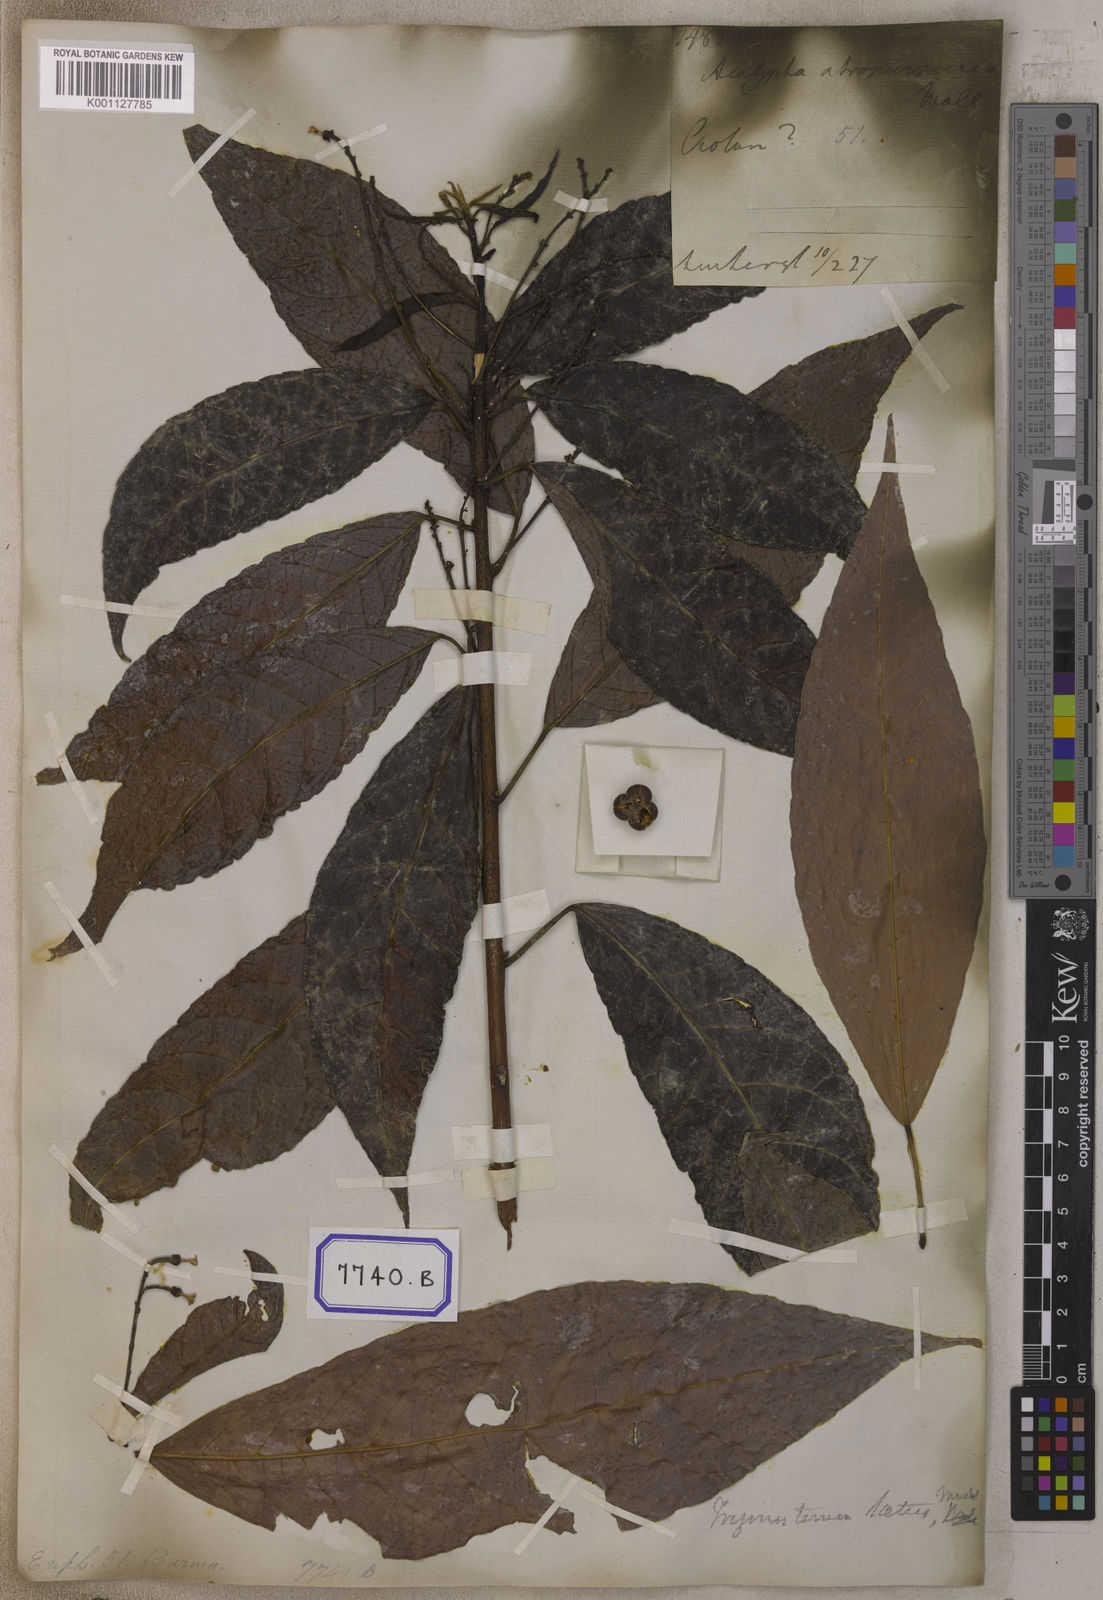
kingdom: Plantae
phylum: Tracheophyta
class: Magnoliopsida
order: Malpighiales
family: Euphorbiaceae
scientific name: Euphorbiaceae
